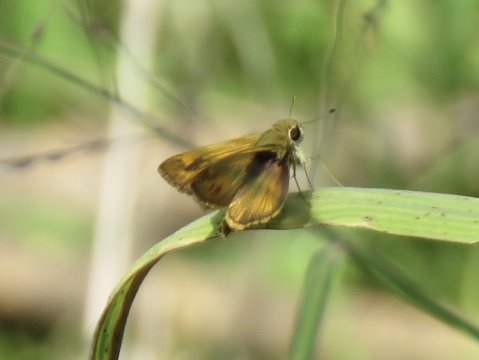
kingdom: Animalia
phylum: Arthropoda
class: Insecta
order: Lepidoptera
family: Hesperiidae
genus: Polites
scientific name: Polites vibex
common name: Whirlabout
